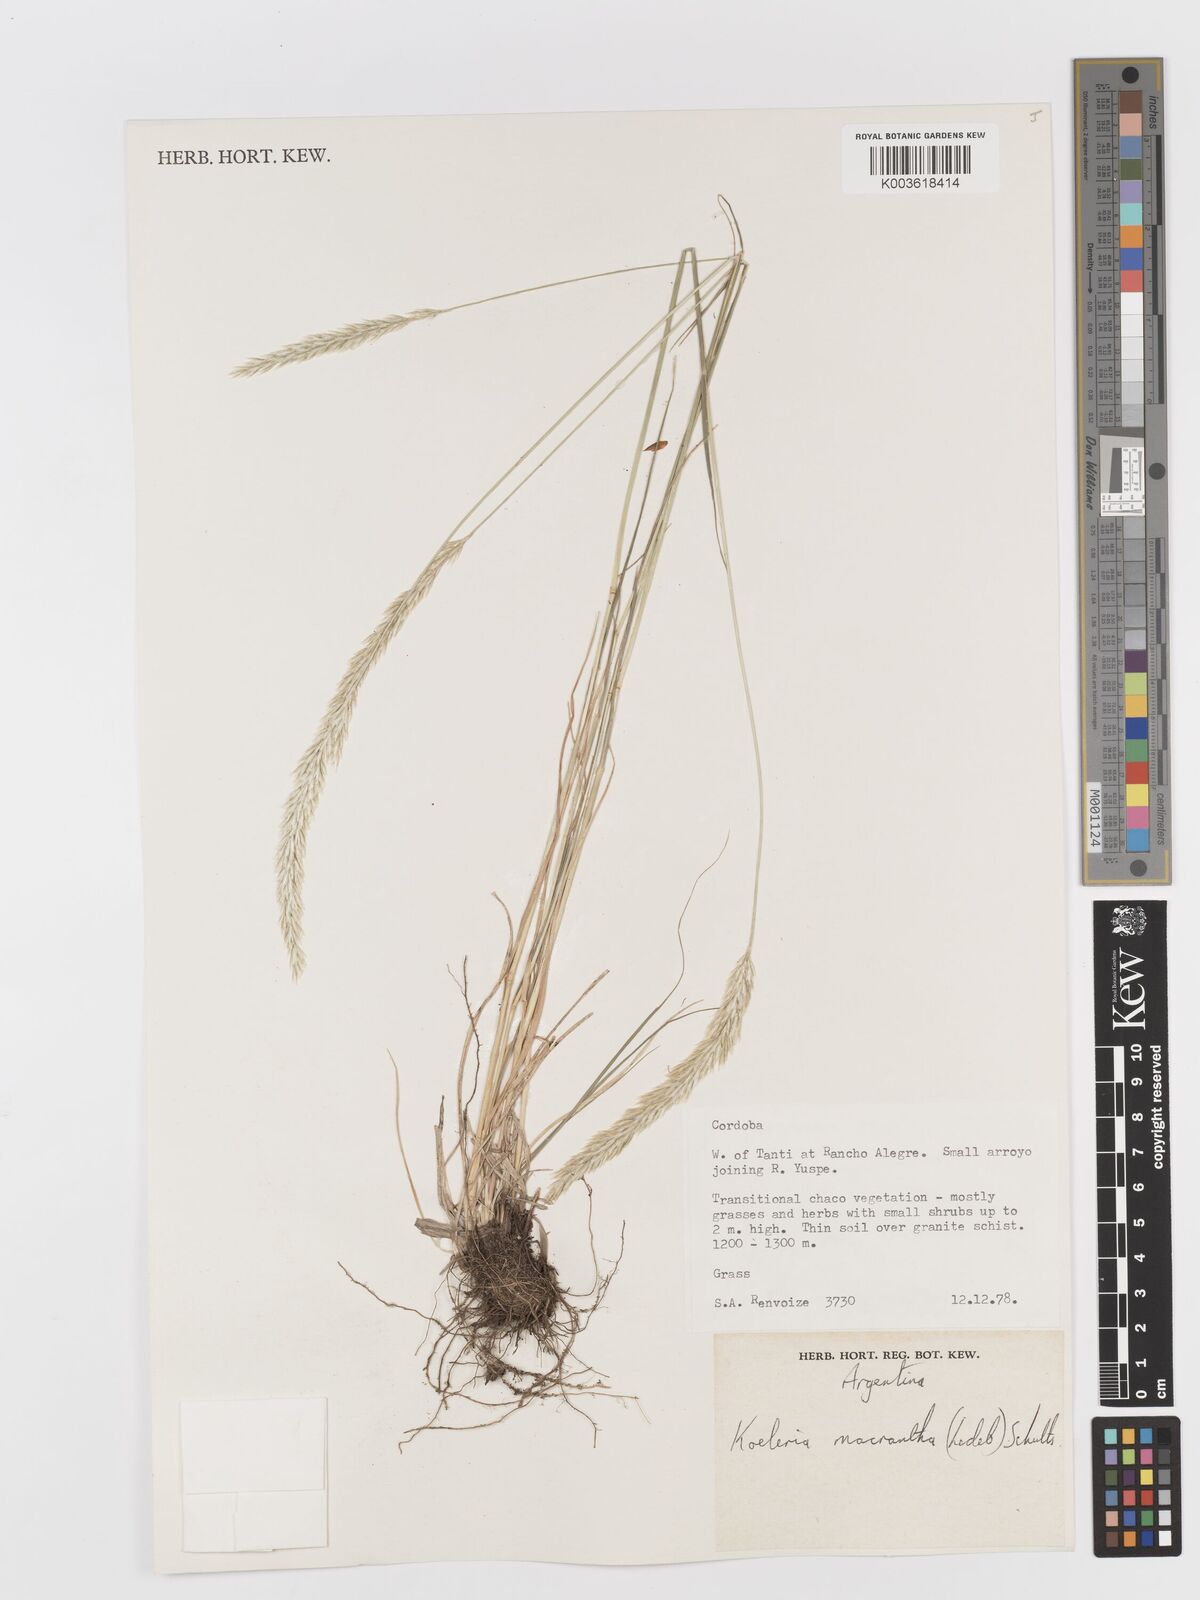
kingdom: Plantae
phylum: Tracheophyta
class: Liliopsida
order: Poales
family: Poaceae
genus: Koeleria
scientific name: Koeleria
